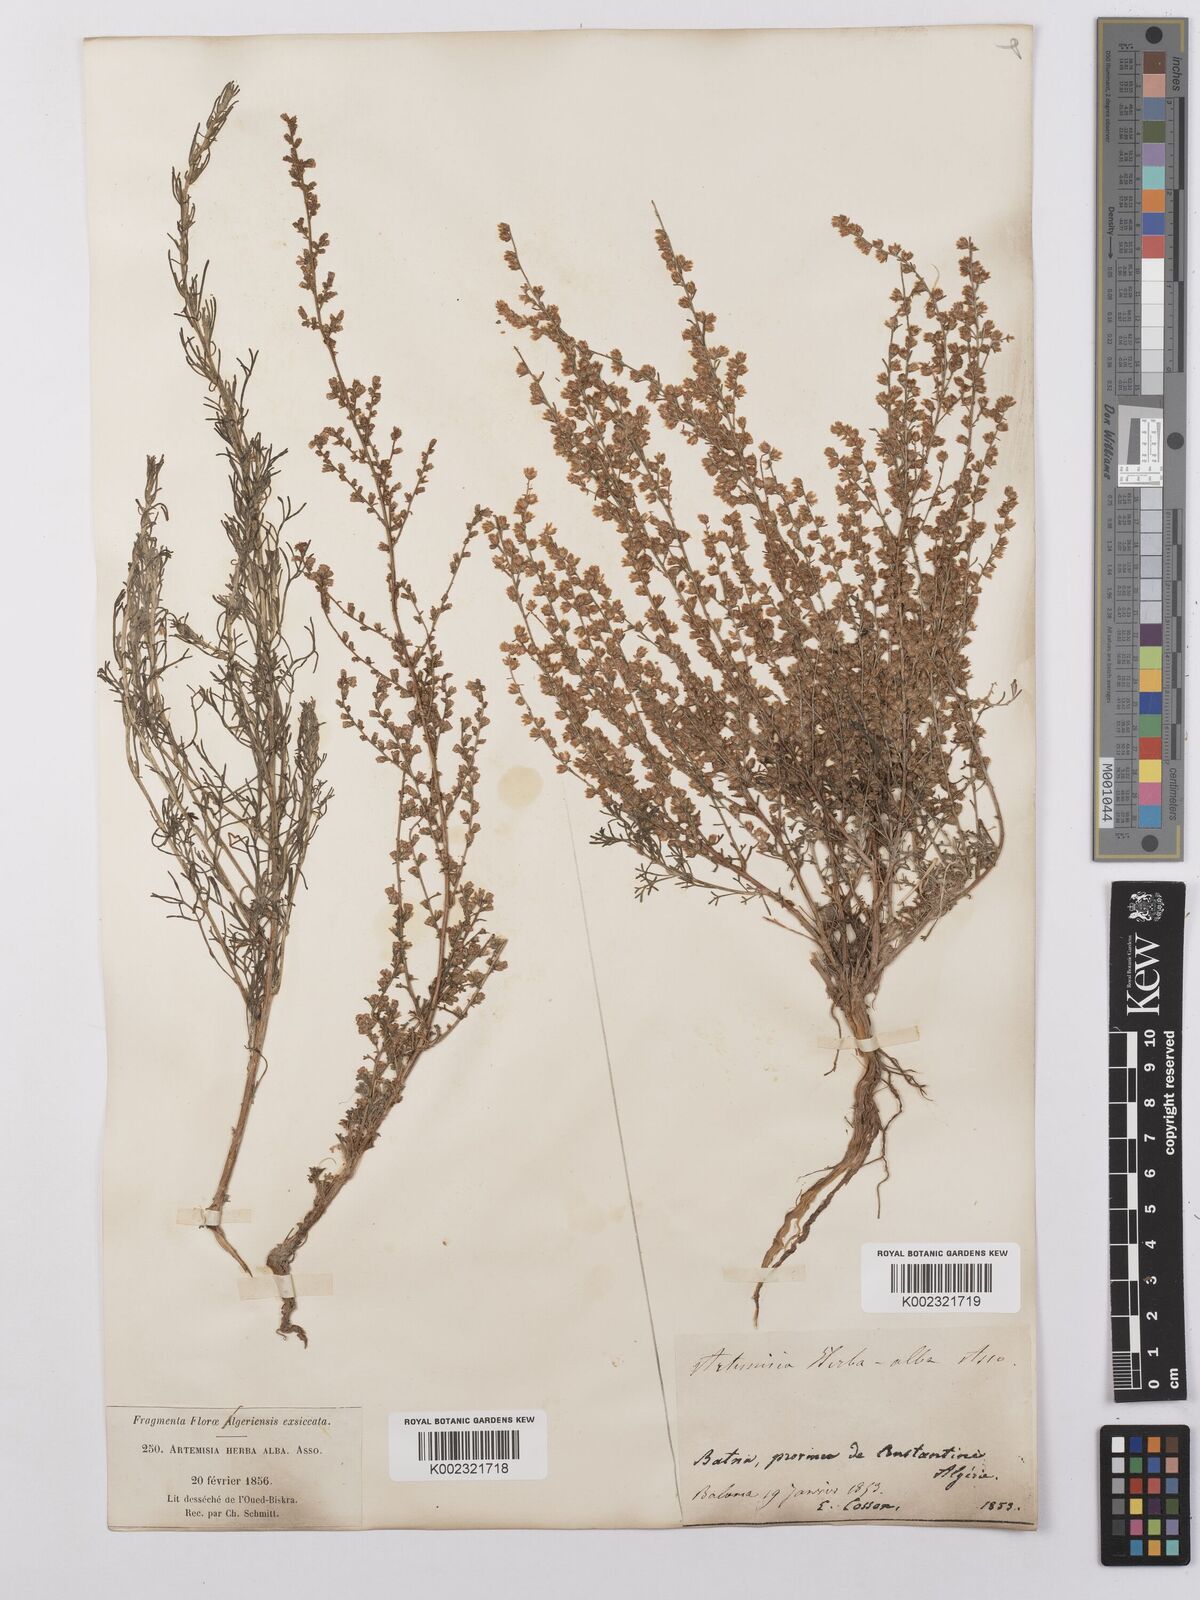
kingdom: Plantae
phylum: Tracheophyta
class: Magnoliopsida
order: Asterales
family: Asteraceae
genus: Artemisia
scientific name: Artemisia herba-alba
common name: White wormwood
